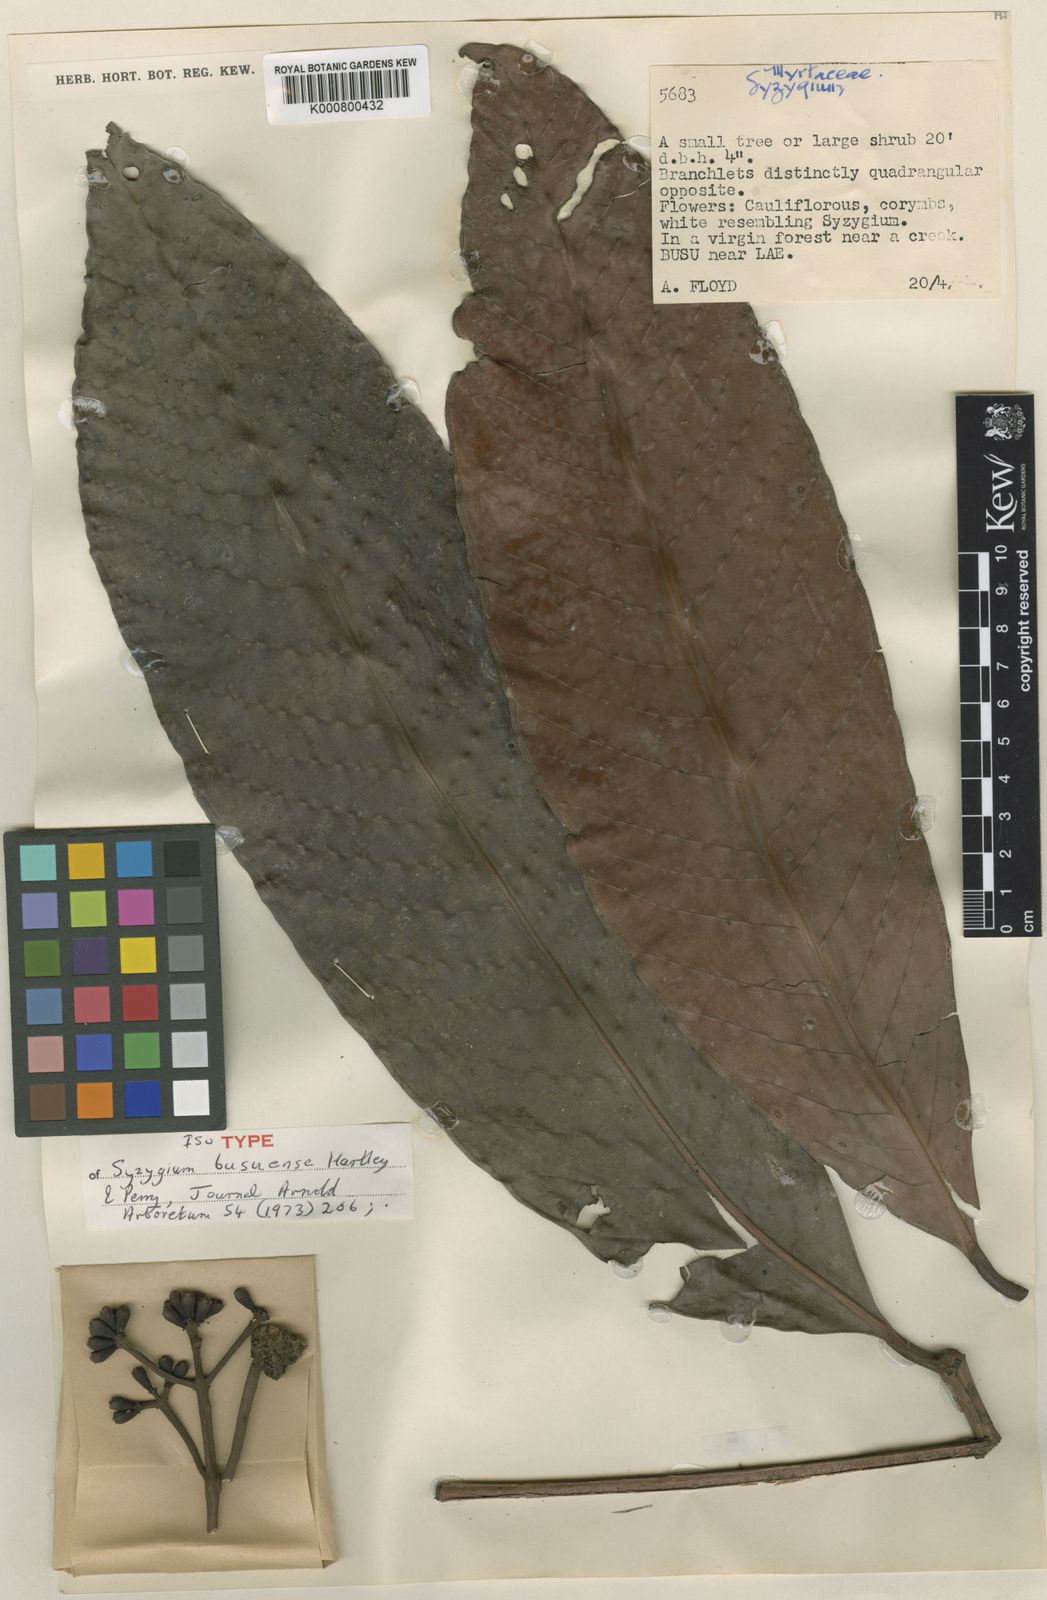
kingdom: Plantae
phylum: Tracheophyta
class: Magnoliopsida
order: Myrtales
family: Myrtaceae
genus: Syzygium
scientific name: Syzygium busuense
